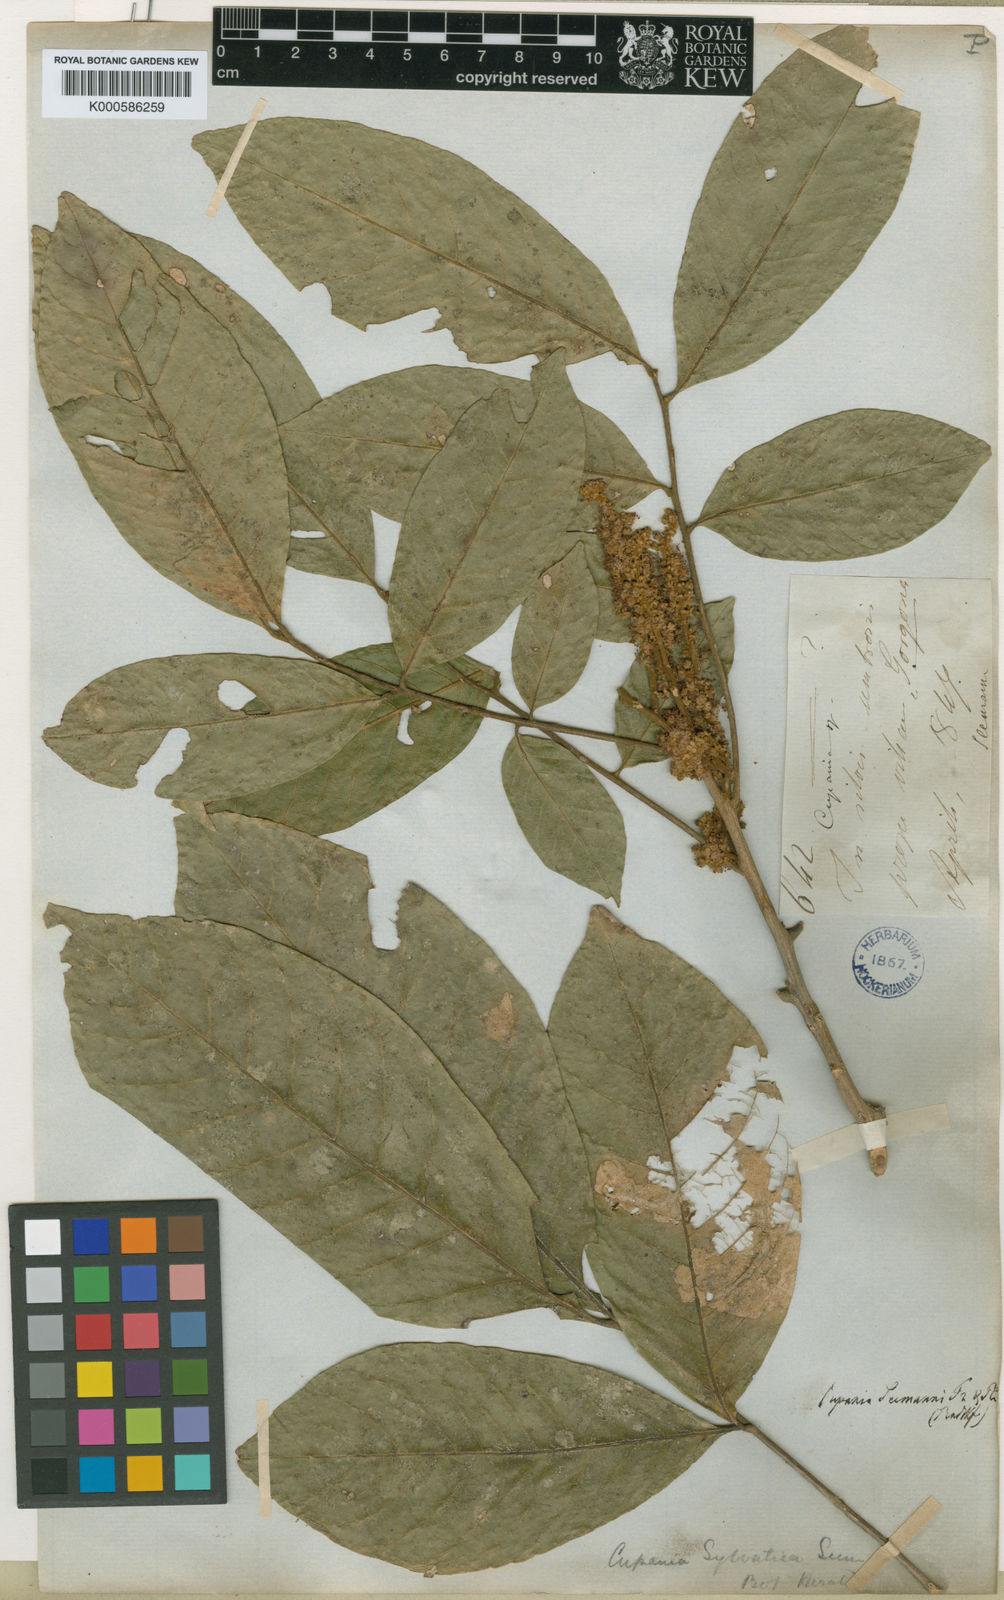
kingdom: Plantae
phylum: Tracheophyta
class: Magnoliopsida
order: Sapindales
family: Sapindaceae
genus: Cupania
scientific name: Cupania seemannii
